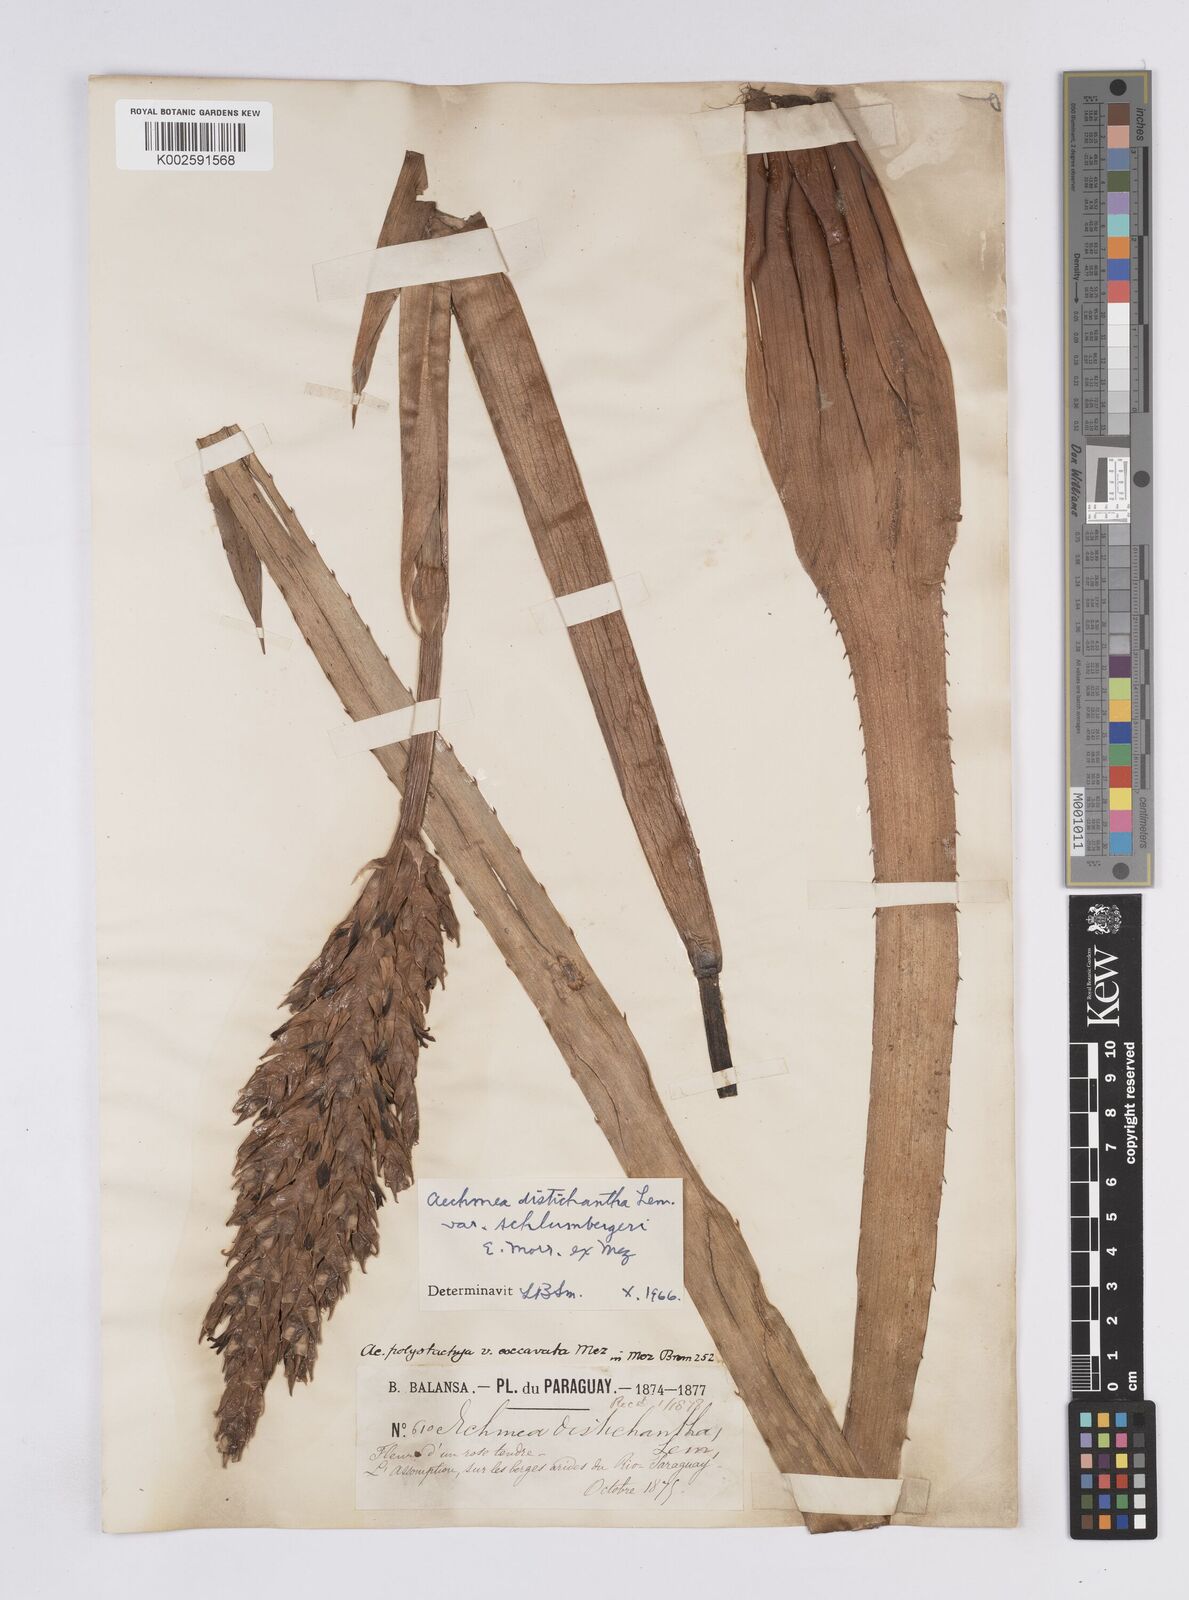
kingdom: Plantae
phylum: Tracheophyta
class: Liliopsida
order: Poales
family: Bromeliaceae
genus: Aechmea
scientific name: Aechmea distichantha
